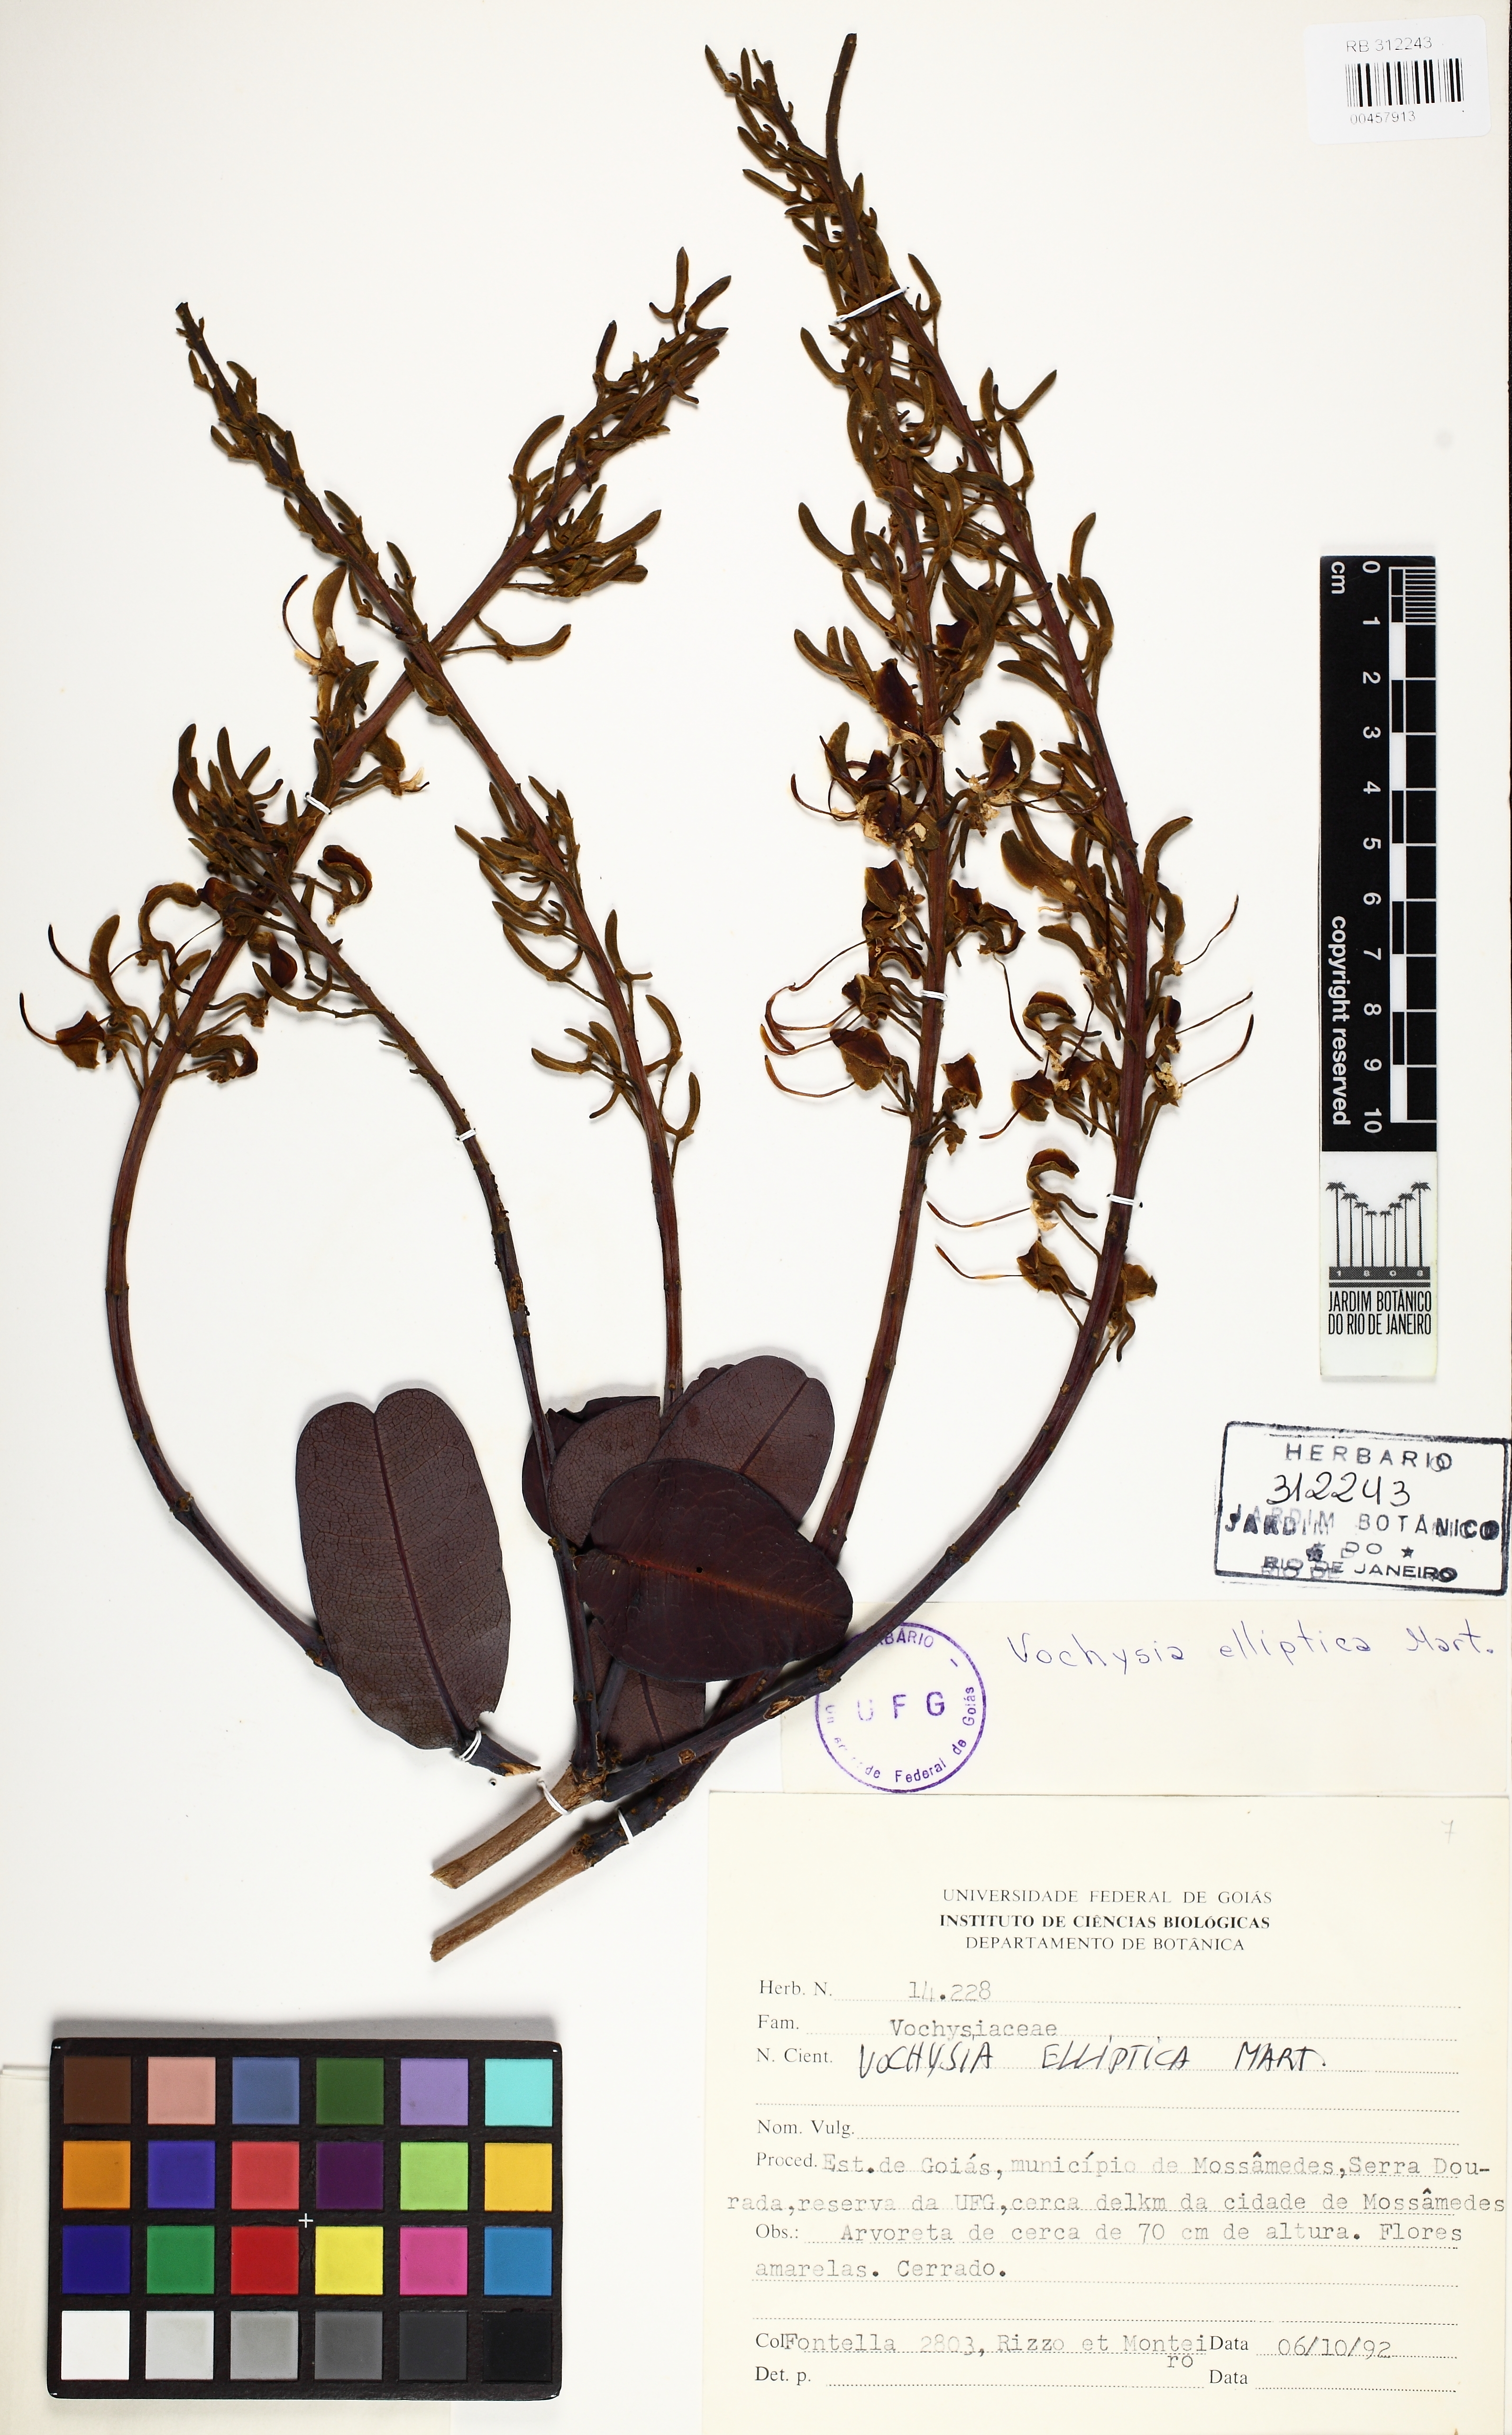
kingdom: Plantae
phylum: Tracheophyta
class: Magnoliopsida
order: Myrtales
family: Vochysiaceae
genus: Vochysia
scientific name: Vochysia elliptica
